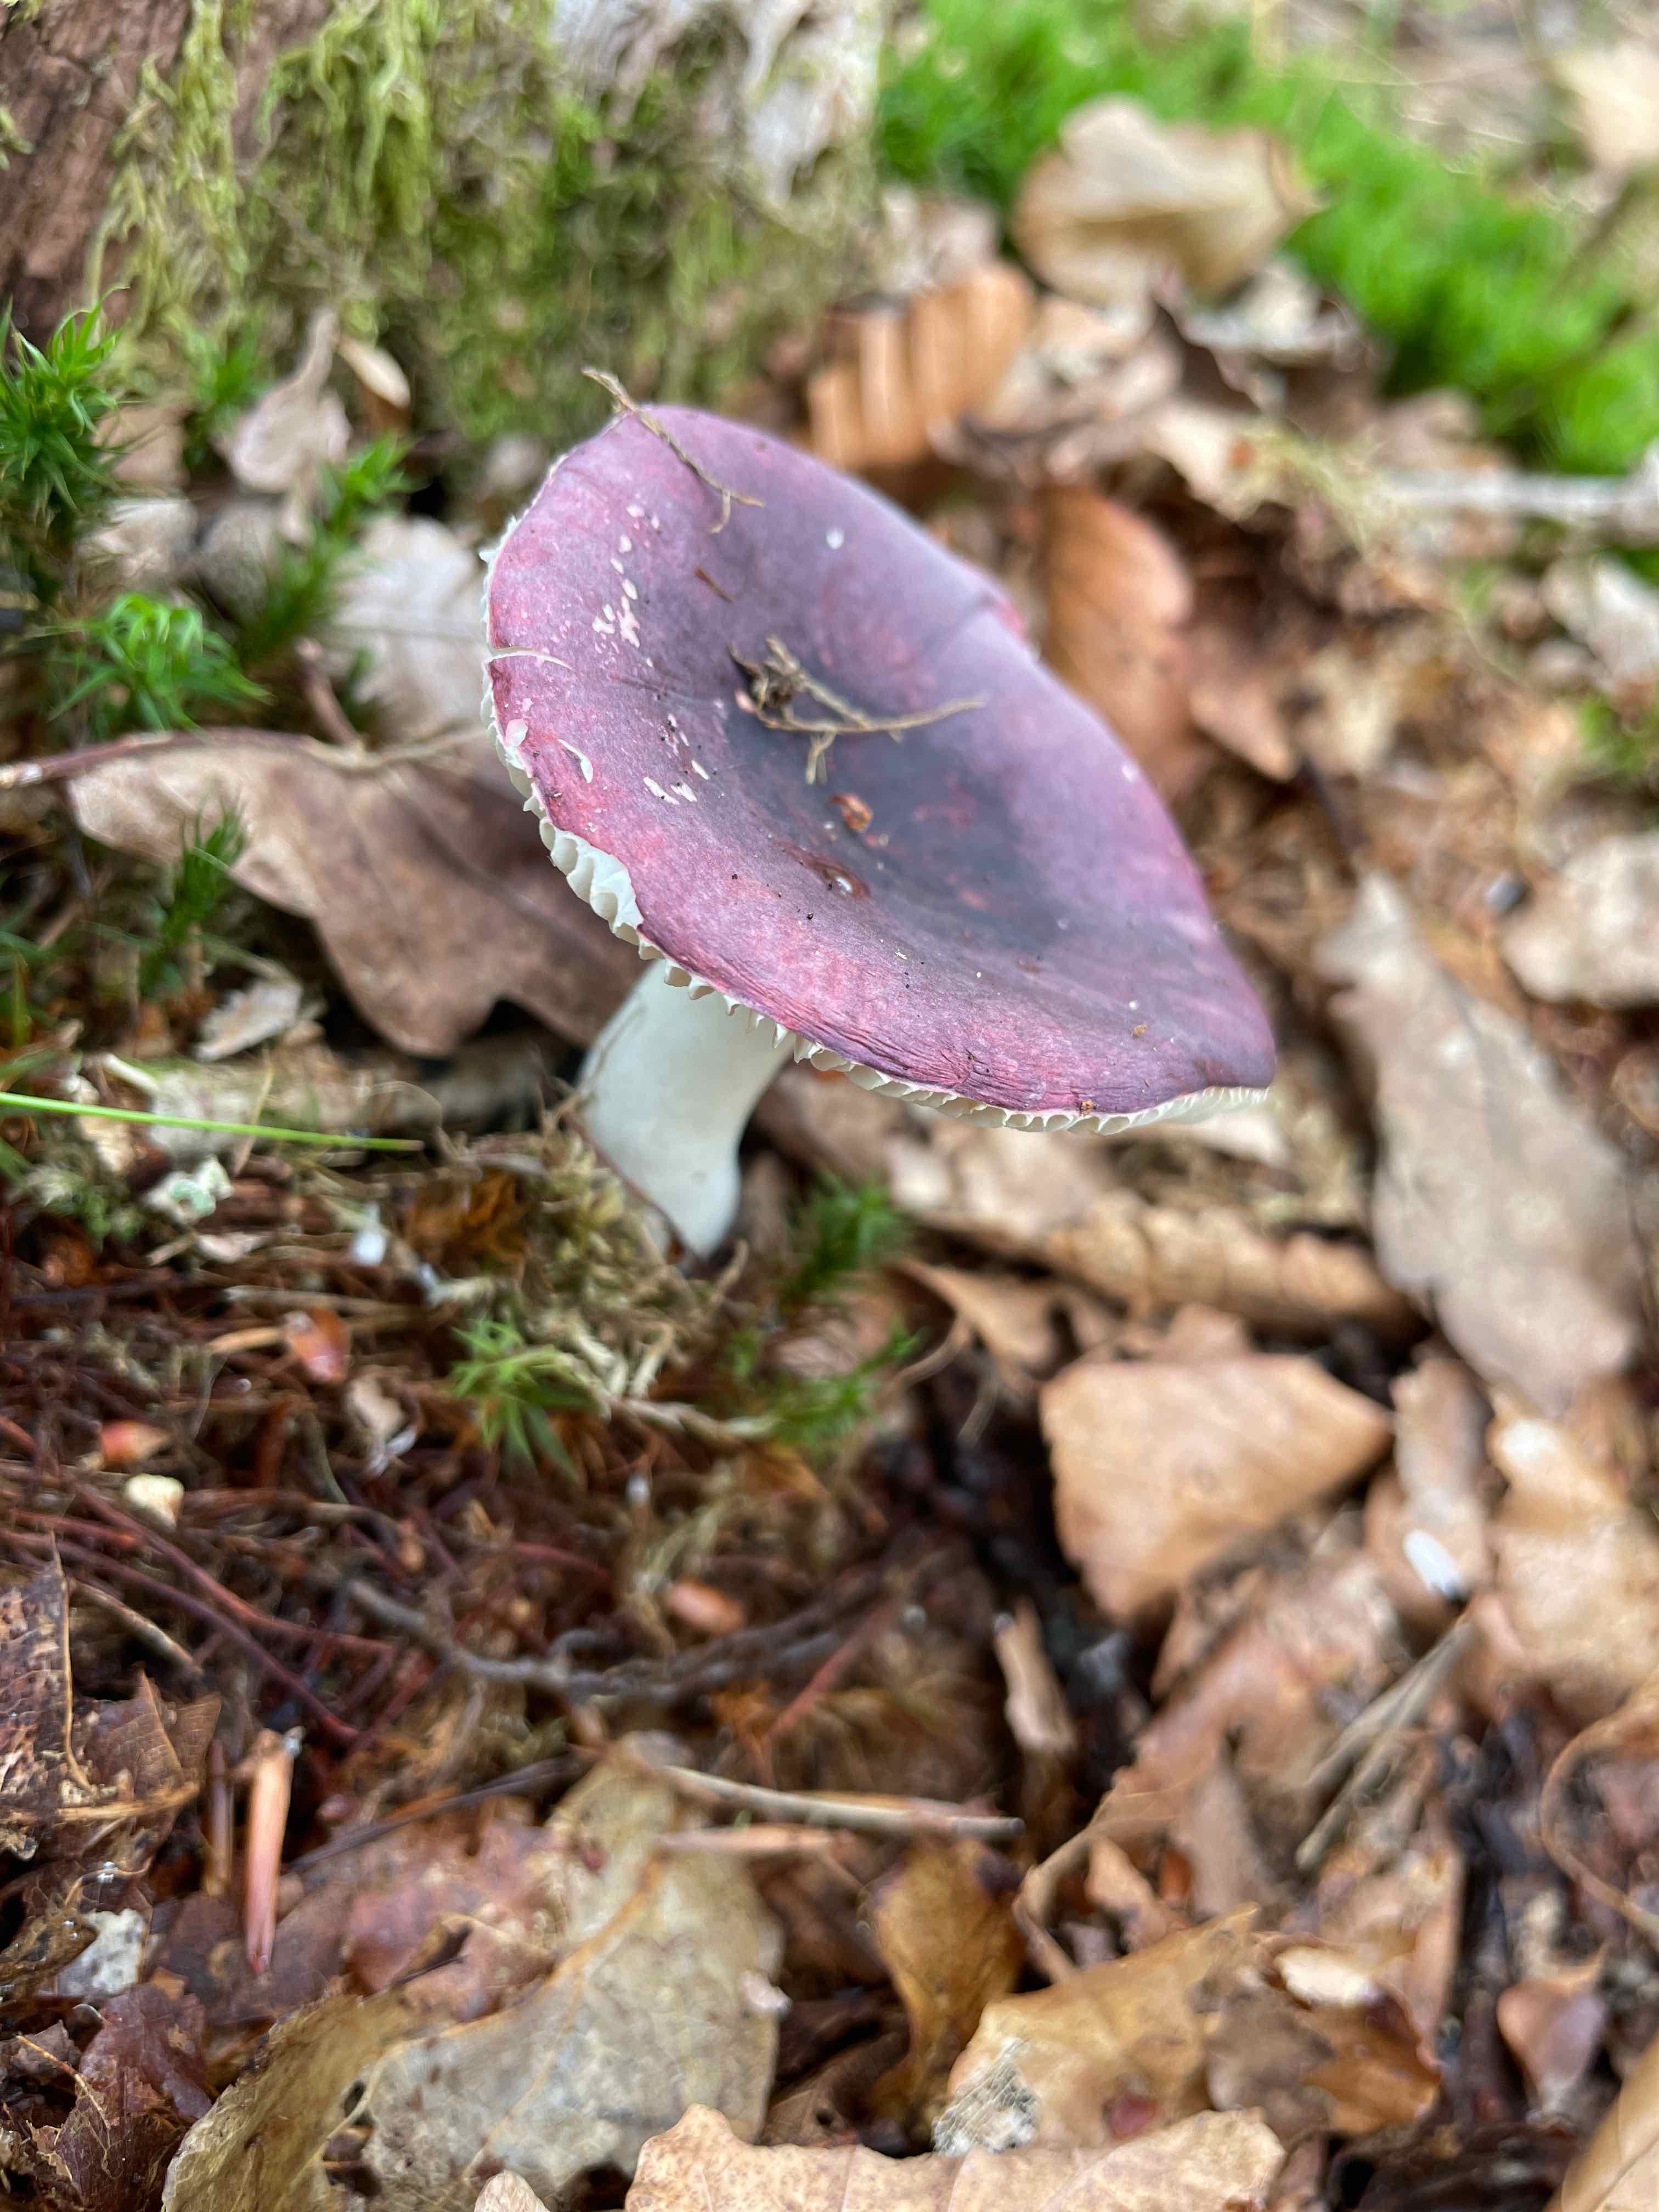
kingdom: Fungi
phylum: Basidiomycota
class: Agaricomycetes
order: Russulales
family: Russulaceae
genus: Russula
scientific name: Russula
